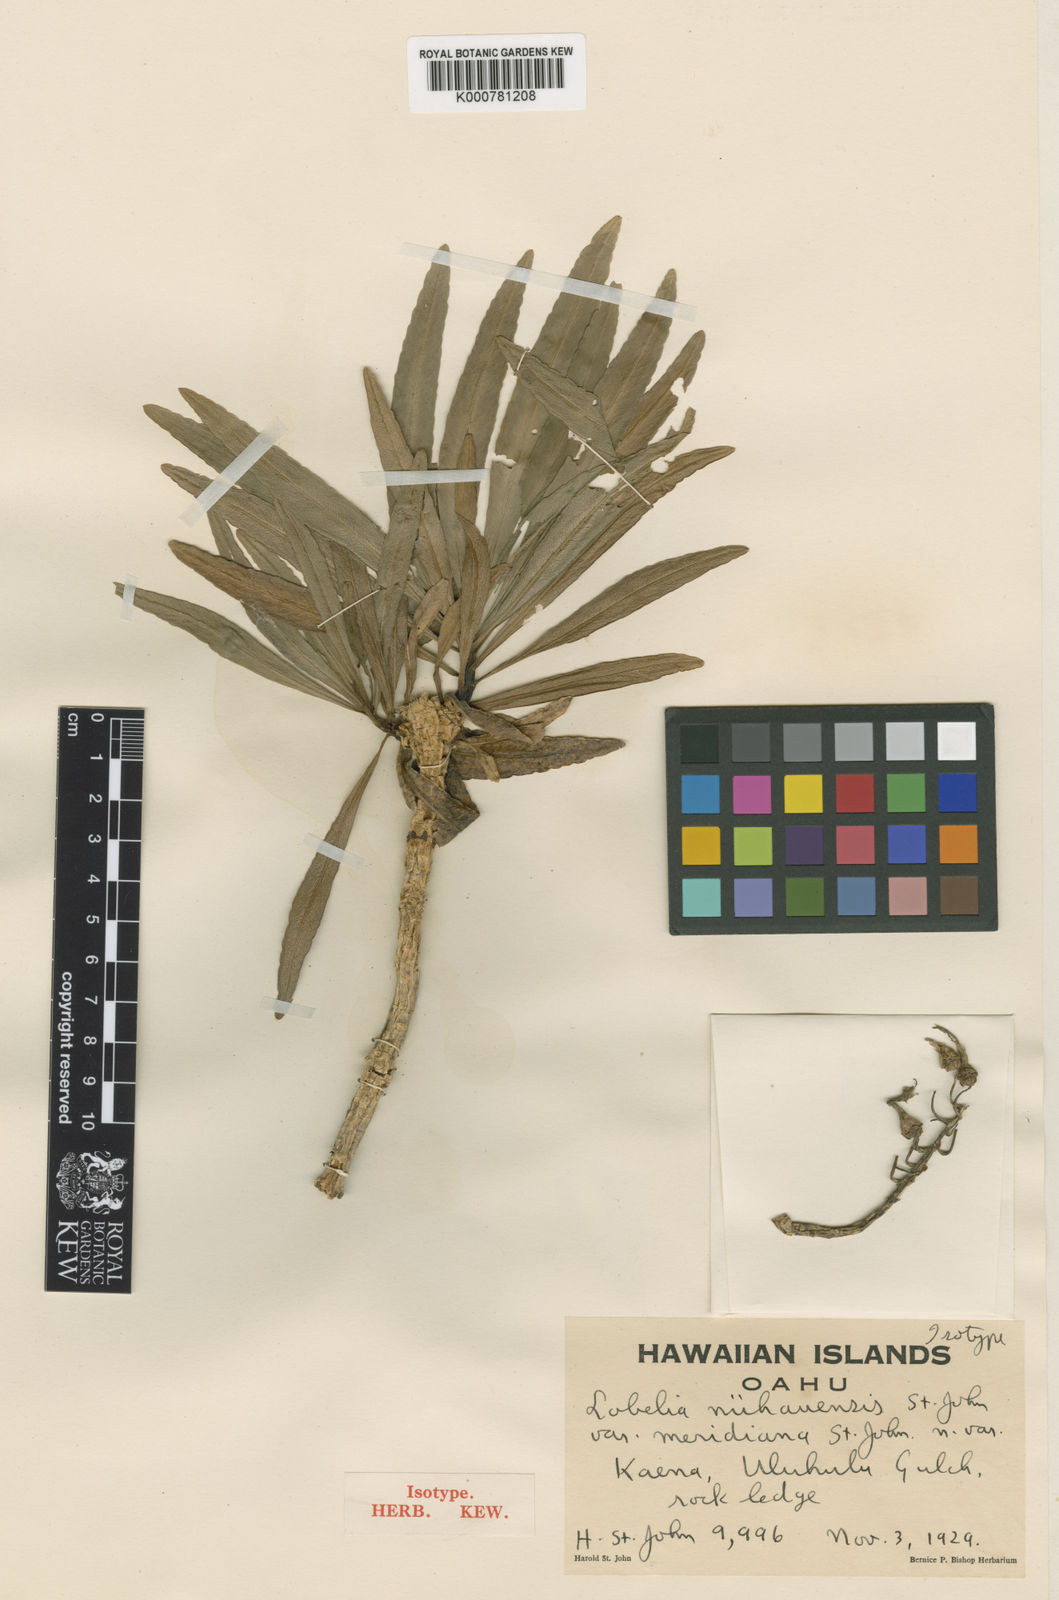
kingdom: Plantae
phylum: Tracheophyta
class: Magnoliopsida
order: Asterales
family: Campanulaceae
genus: Lobelia
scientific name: Lobelia niihauensis
